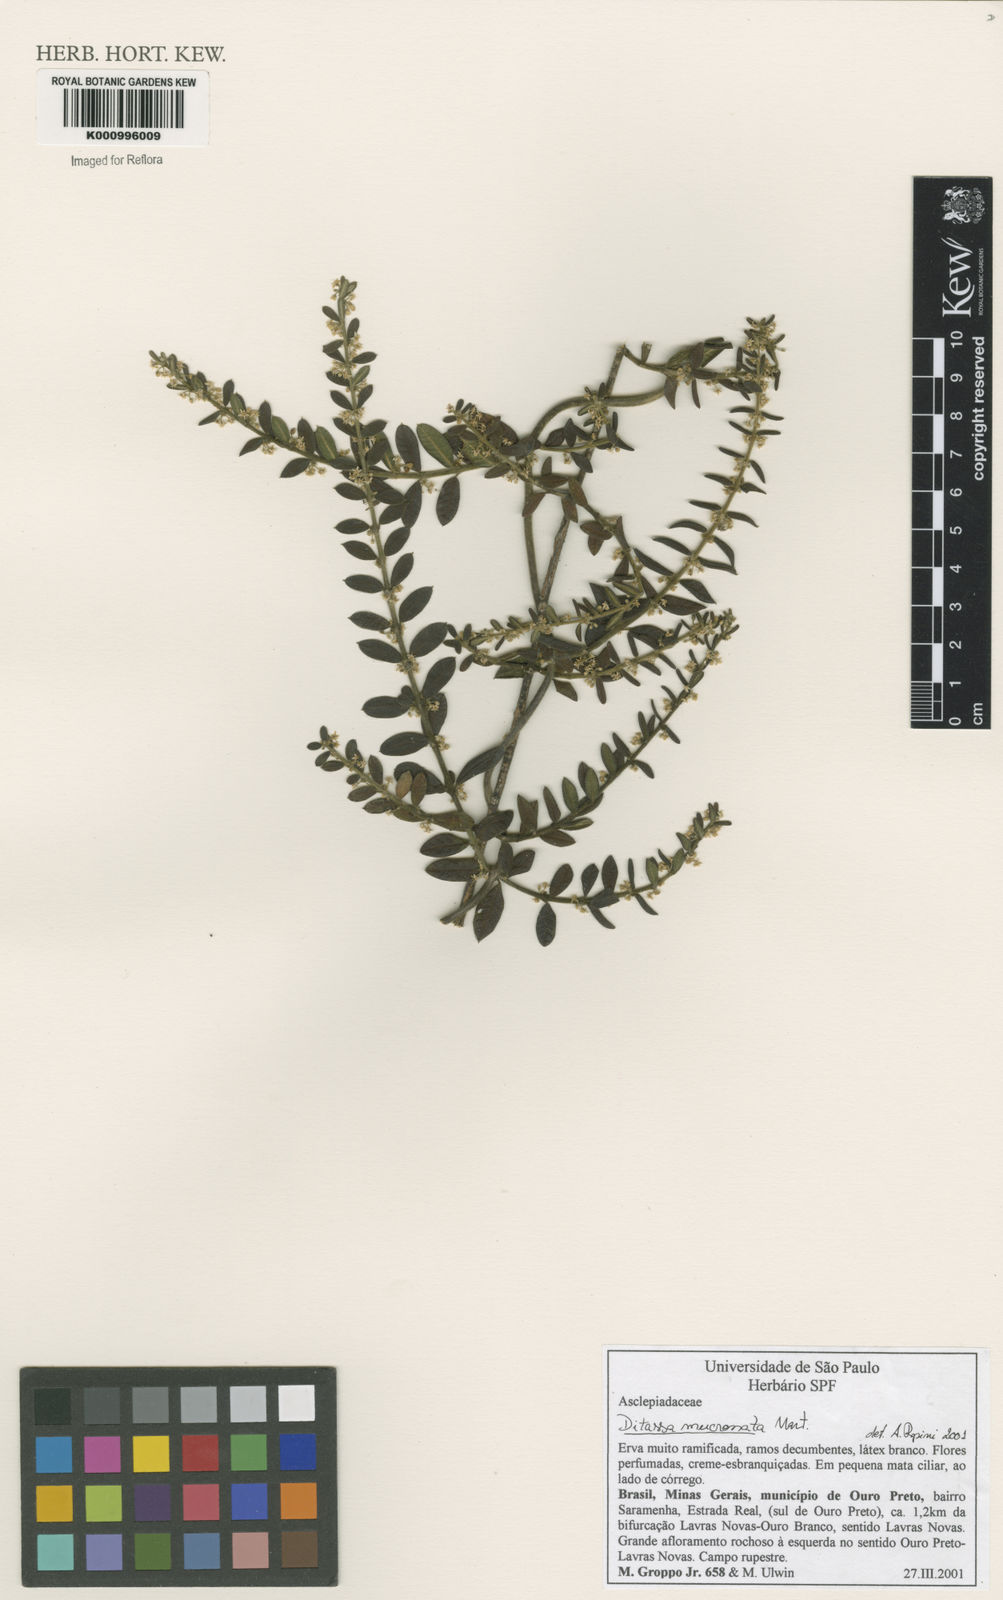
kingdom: Plantae
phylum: Tracheophyta
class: Magnoliopsida
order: Gentianales
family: Apocynaceae
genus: Ditassa
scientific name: Ditassa mucronata
